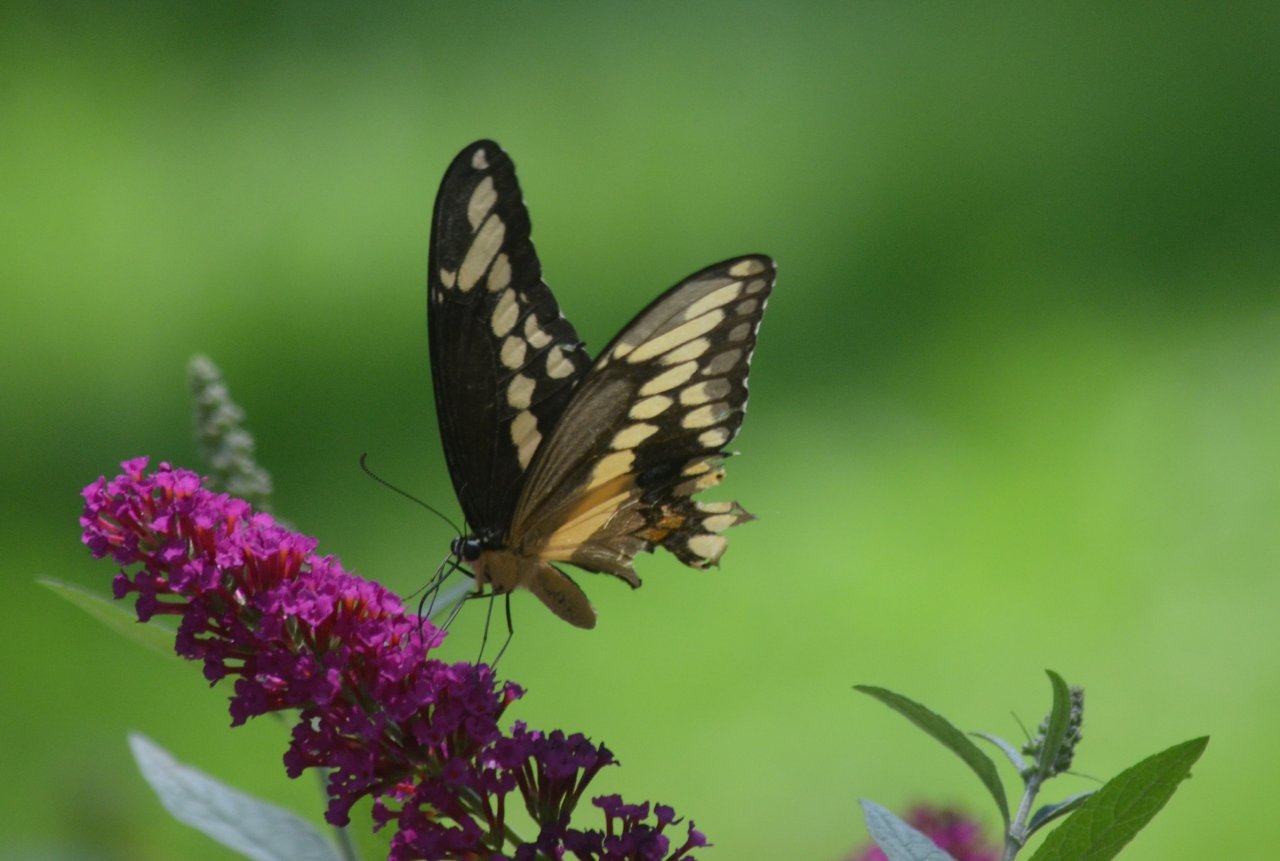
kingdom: Animalia
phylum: Arthropoda
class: Insecta
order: Lepidoptera
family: Papilionidae
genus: Papilio
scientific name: Papilio cresphontes
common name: Eastern Giant Swallowtail
